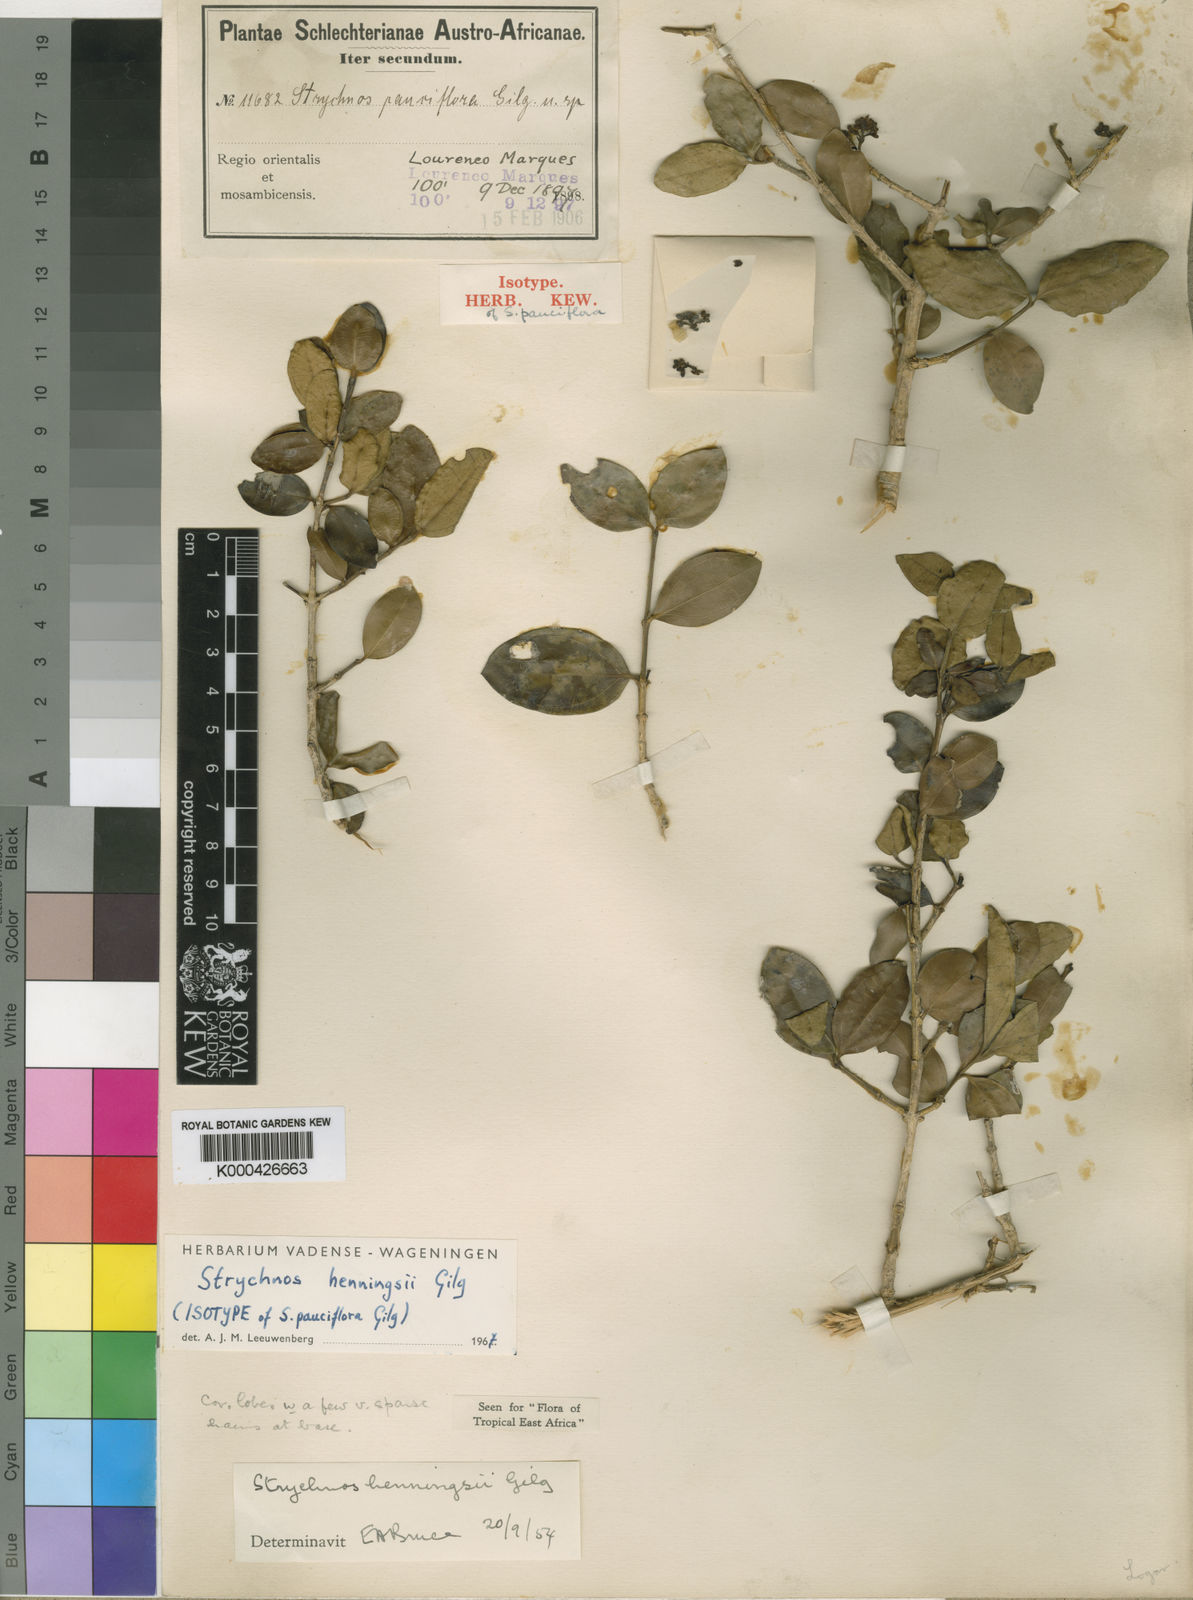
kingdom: Plantae
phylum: Tracheophyta
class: Magnoliopsida
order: Gentianales
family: Loganiaceae
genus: Strychnos
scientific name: Strychnos henningsii
